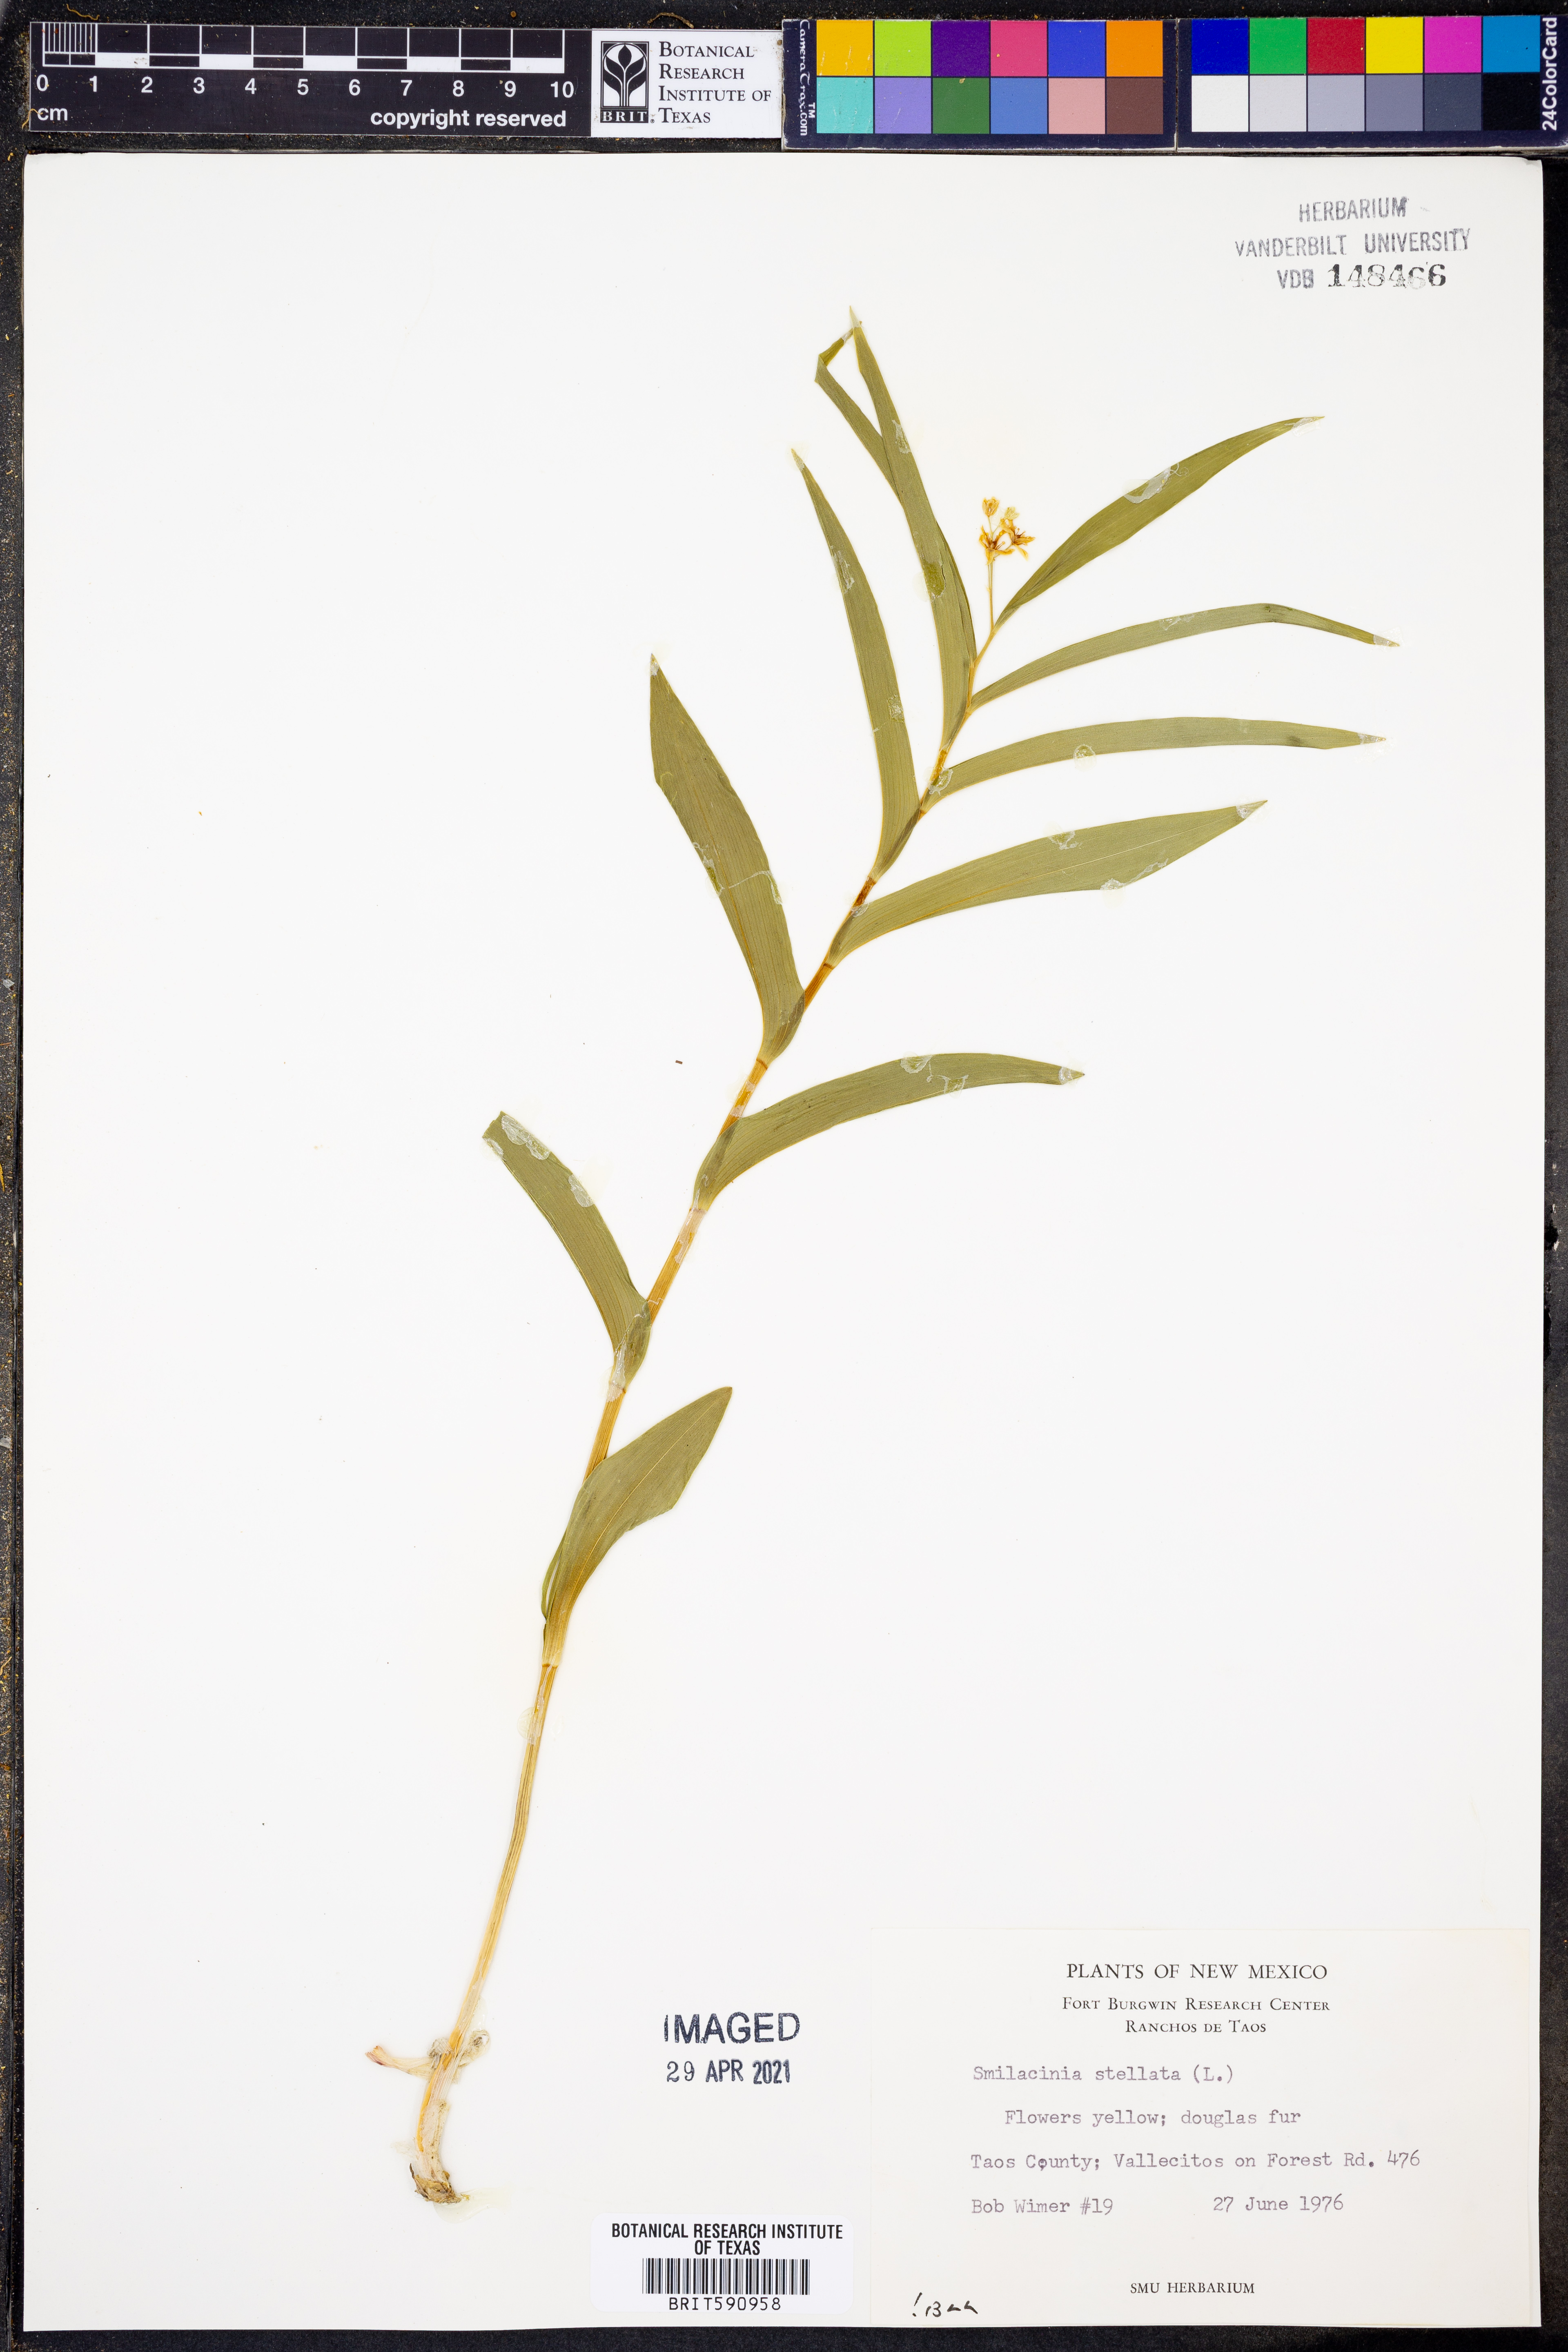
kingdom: Plantae
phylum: Tracheophyta
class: Liliopsida
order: Asparagales
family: Asparagaceae
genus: Maianthemum
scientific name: Maianthemum stellatum
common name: Little false solomon's seal
